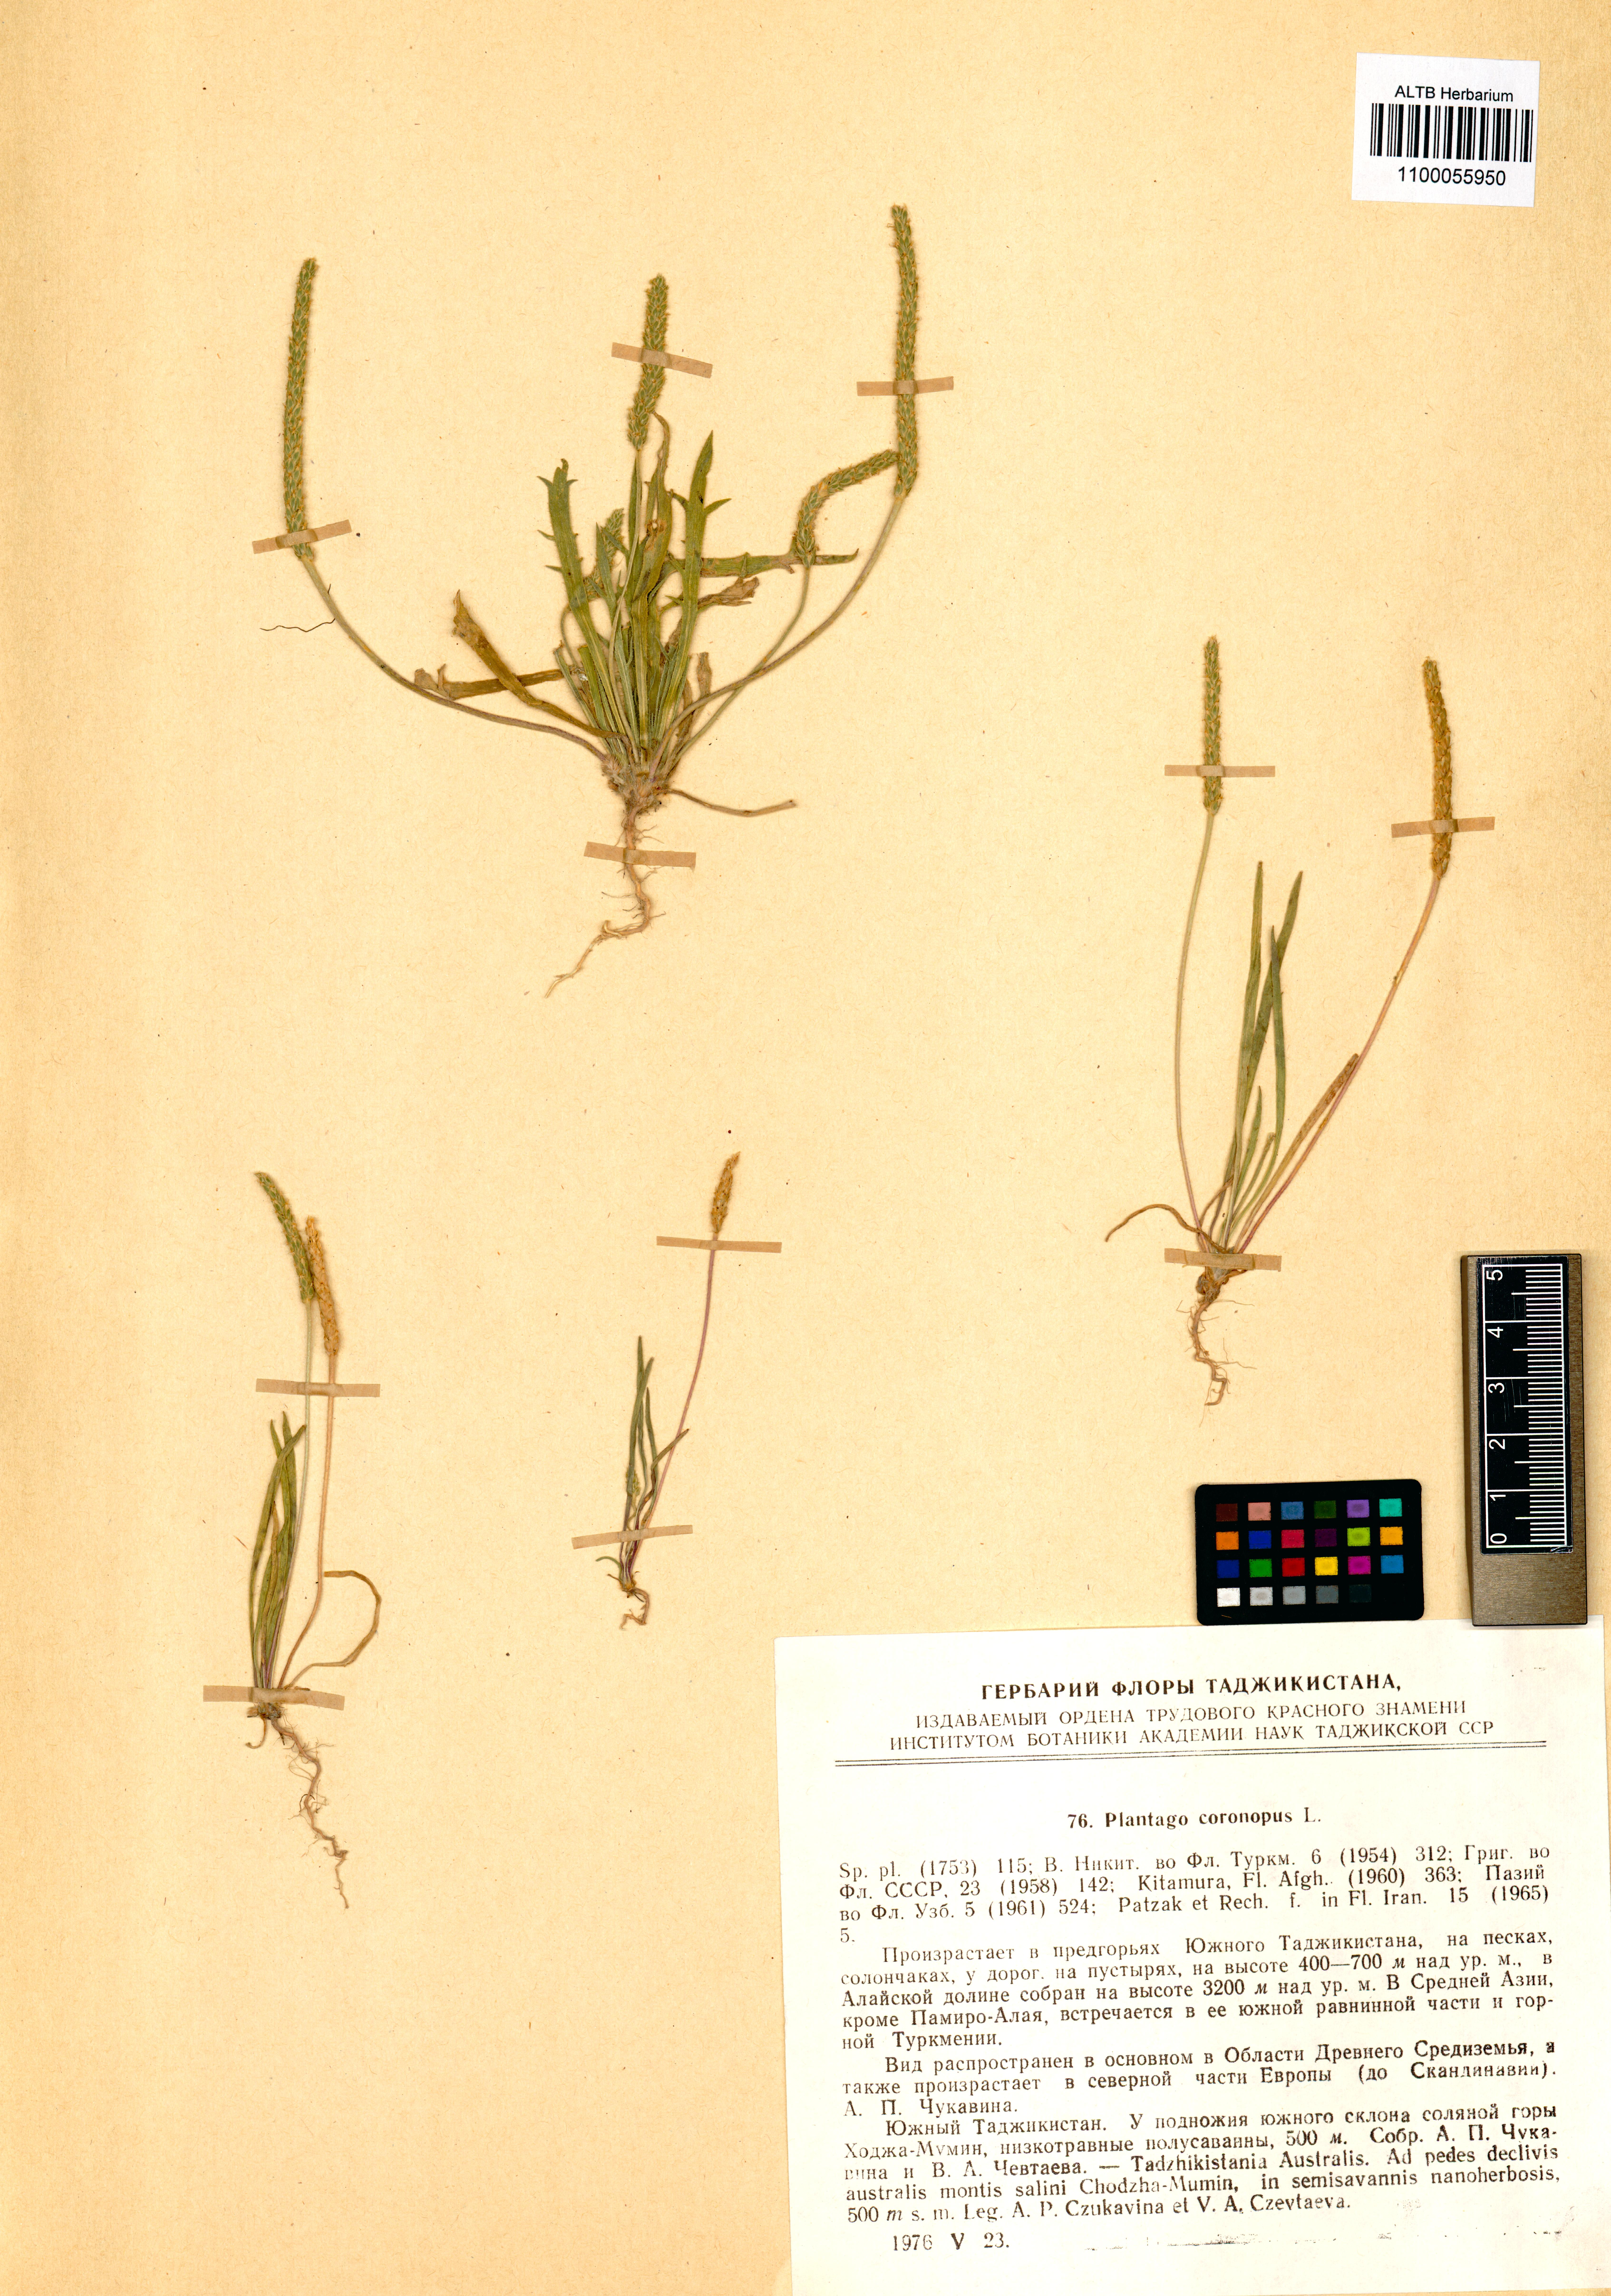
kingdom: Plantae
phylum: Tracheophyta
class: Magnoliopsida
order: Lamiales
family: Plantaginaceae
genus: Plantago
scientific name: Plantago coronopus
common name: Buck's-horn plantain
